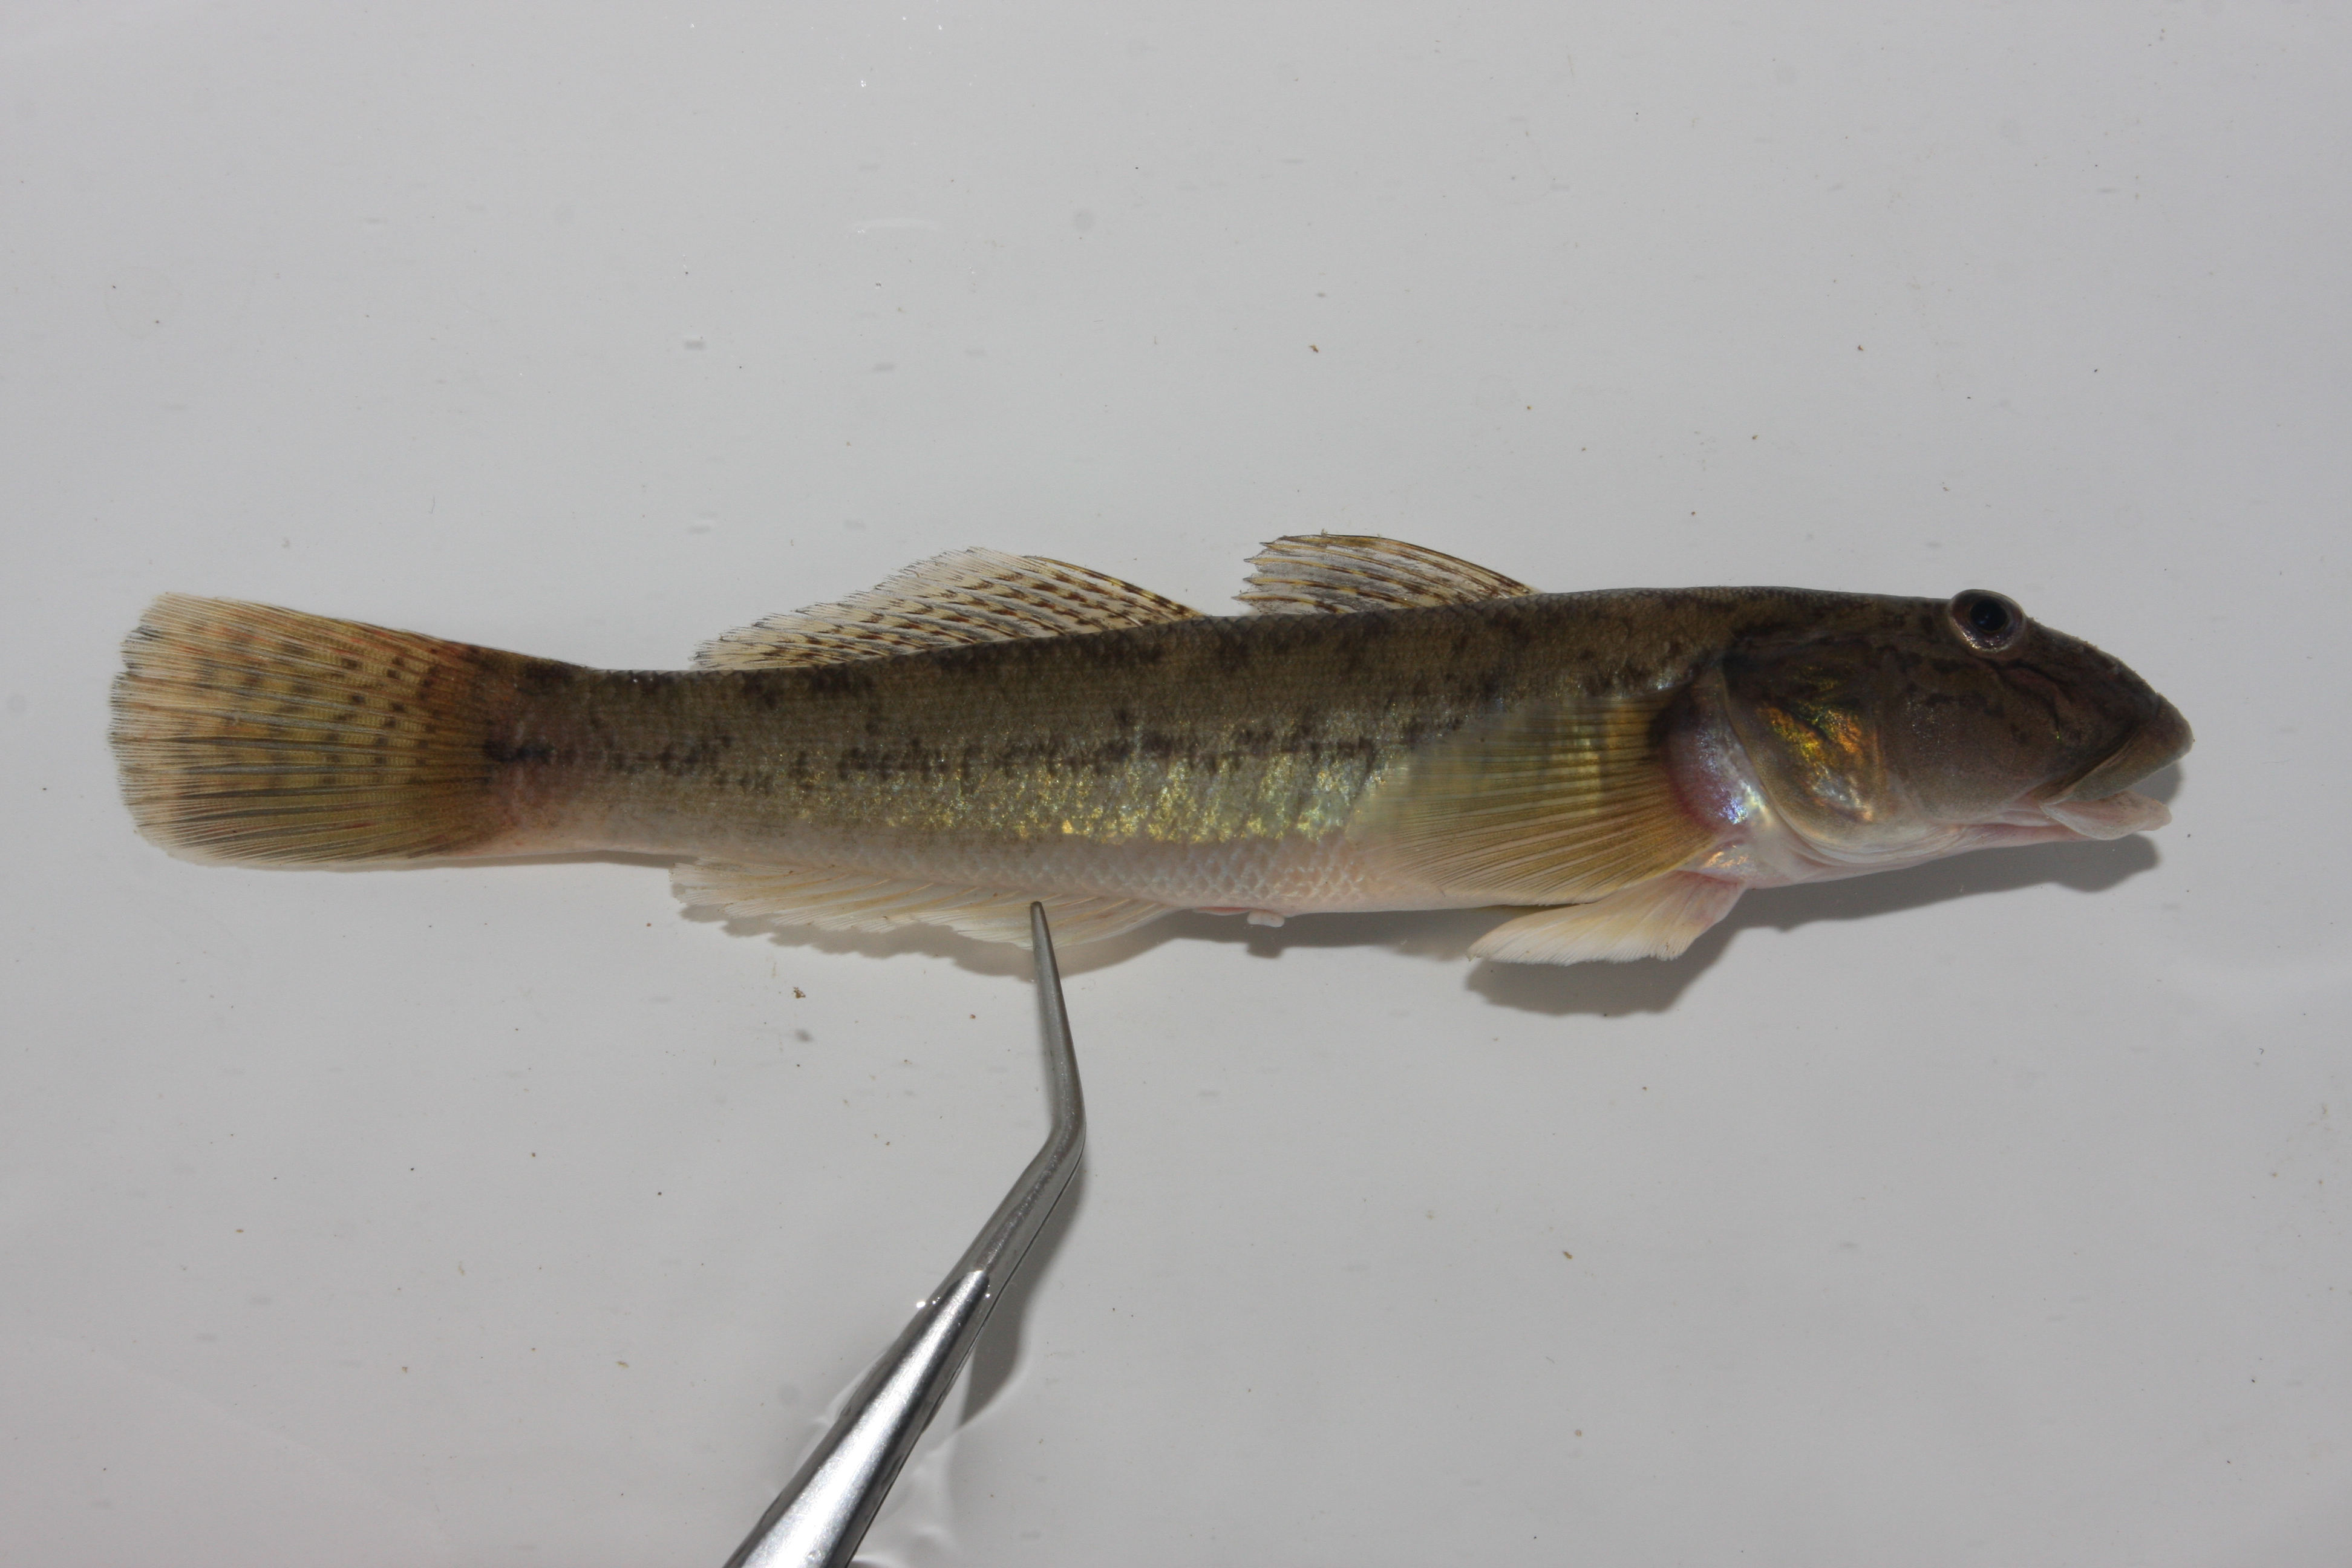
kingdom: Animalia
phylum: Chordata
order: Perciformes
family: Gobiidae
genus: Awaous
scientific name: Awaous aeneofuscus
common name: Freshwater goby
